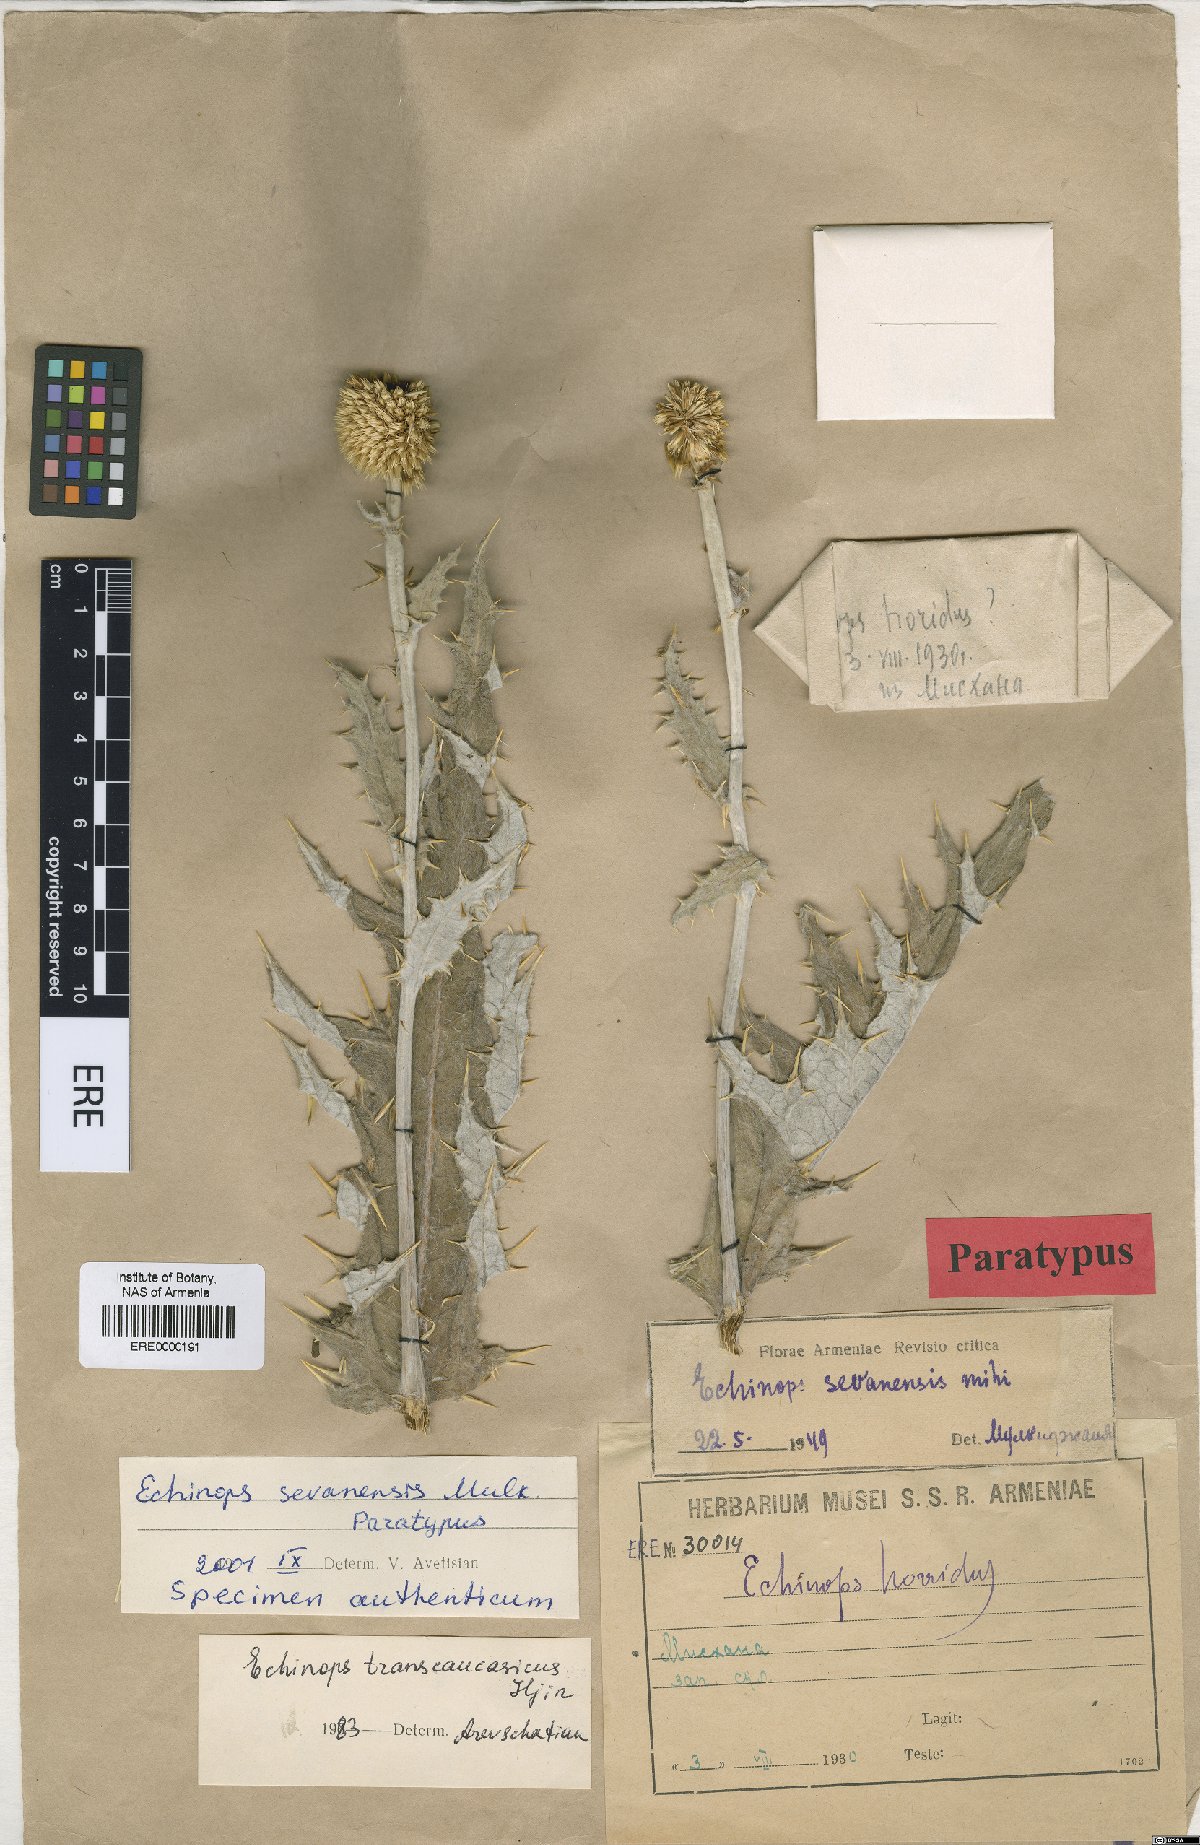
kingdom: Plantae
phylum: Tracheophyta
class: Magnoliopsida
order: Asterales
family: Asteraceae
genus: Echinops
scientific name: Echinops transcaucasicus
